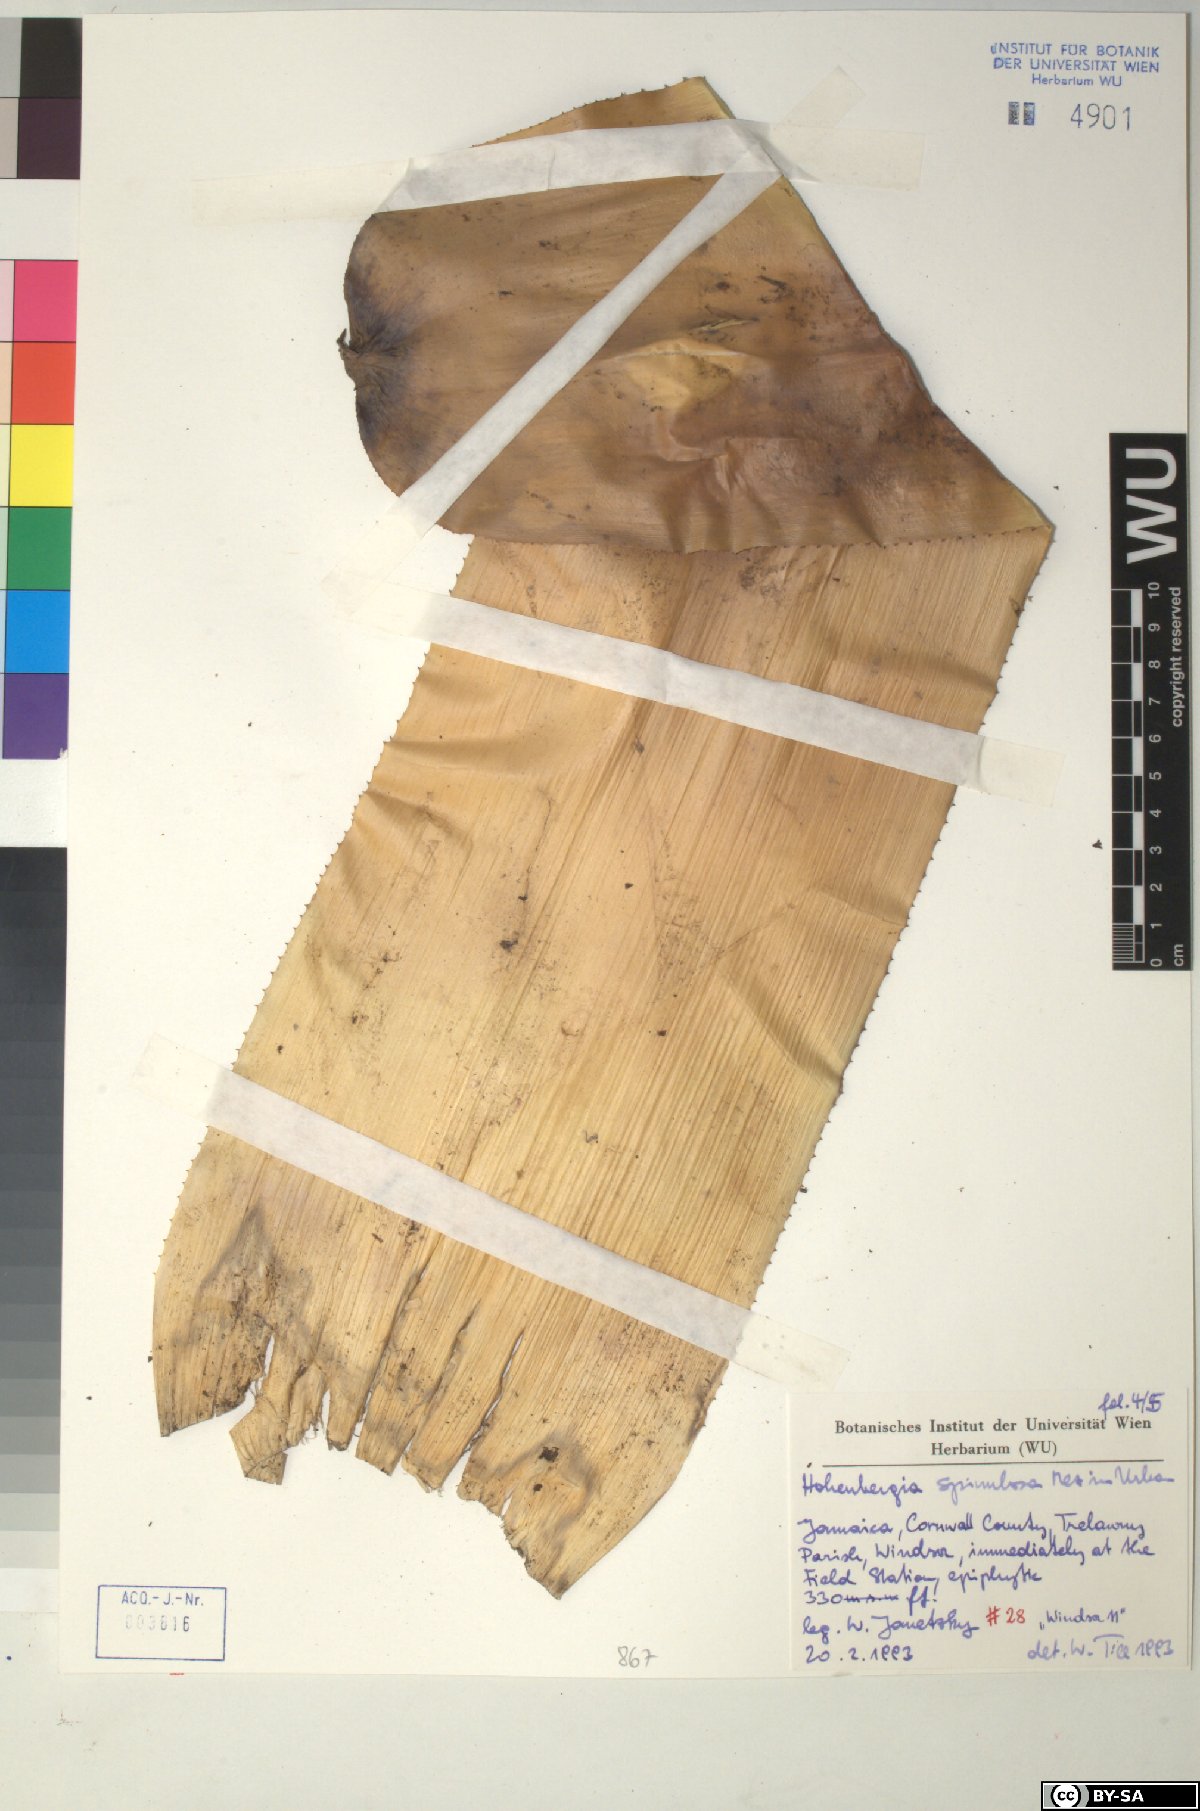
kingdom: Plantae
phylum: Tracheophyta
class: Liliopsida
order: Poales
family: Bromeliaceae
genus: Wittmackia
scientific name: Wittmackia spinulosa
